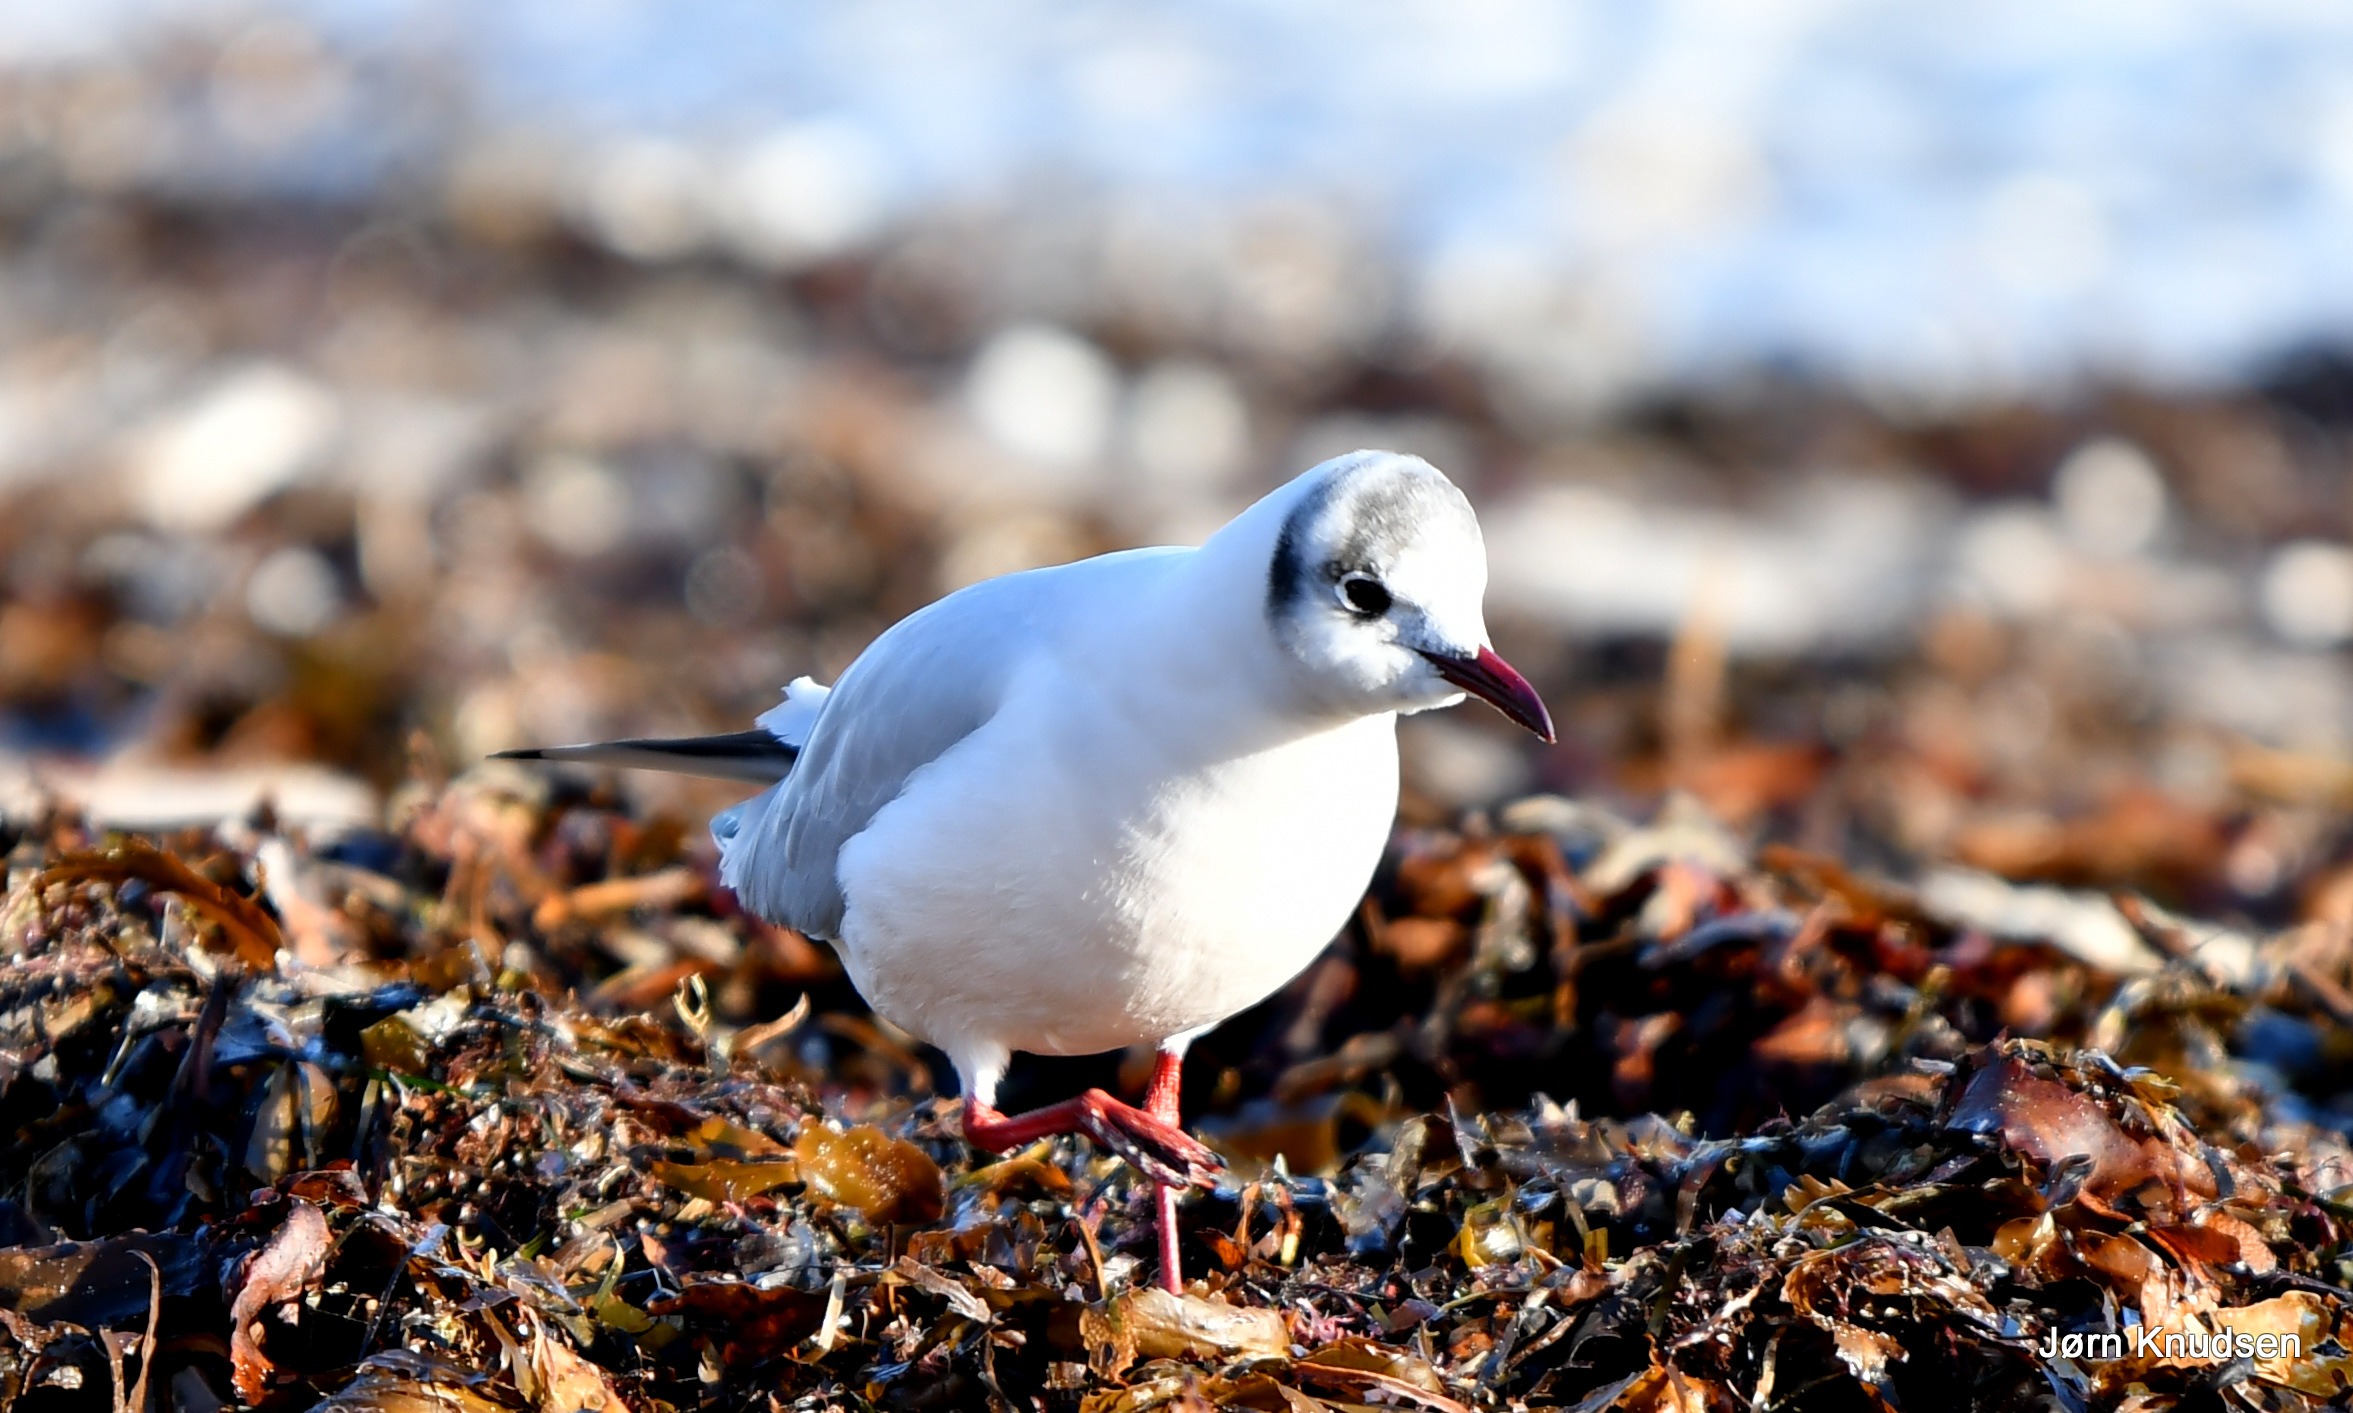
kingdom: Animalia
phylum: Chordata
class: Aves
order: Charadriiformes
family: Laridae
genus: Chroicocephalus
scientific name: Chroicocephalus ridibundus
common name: Hættemåge
